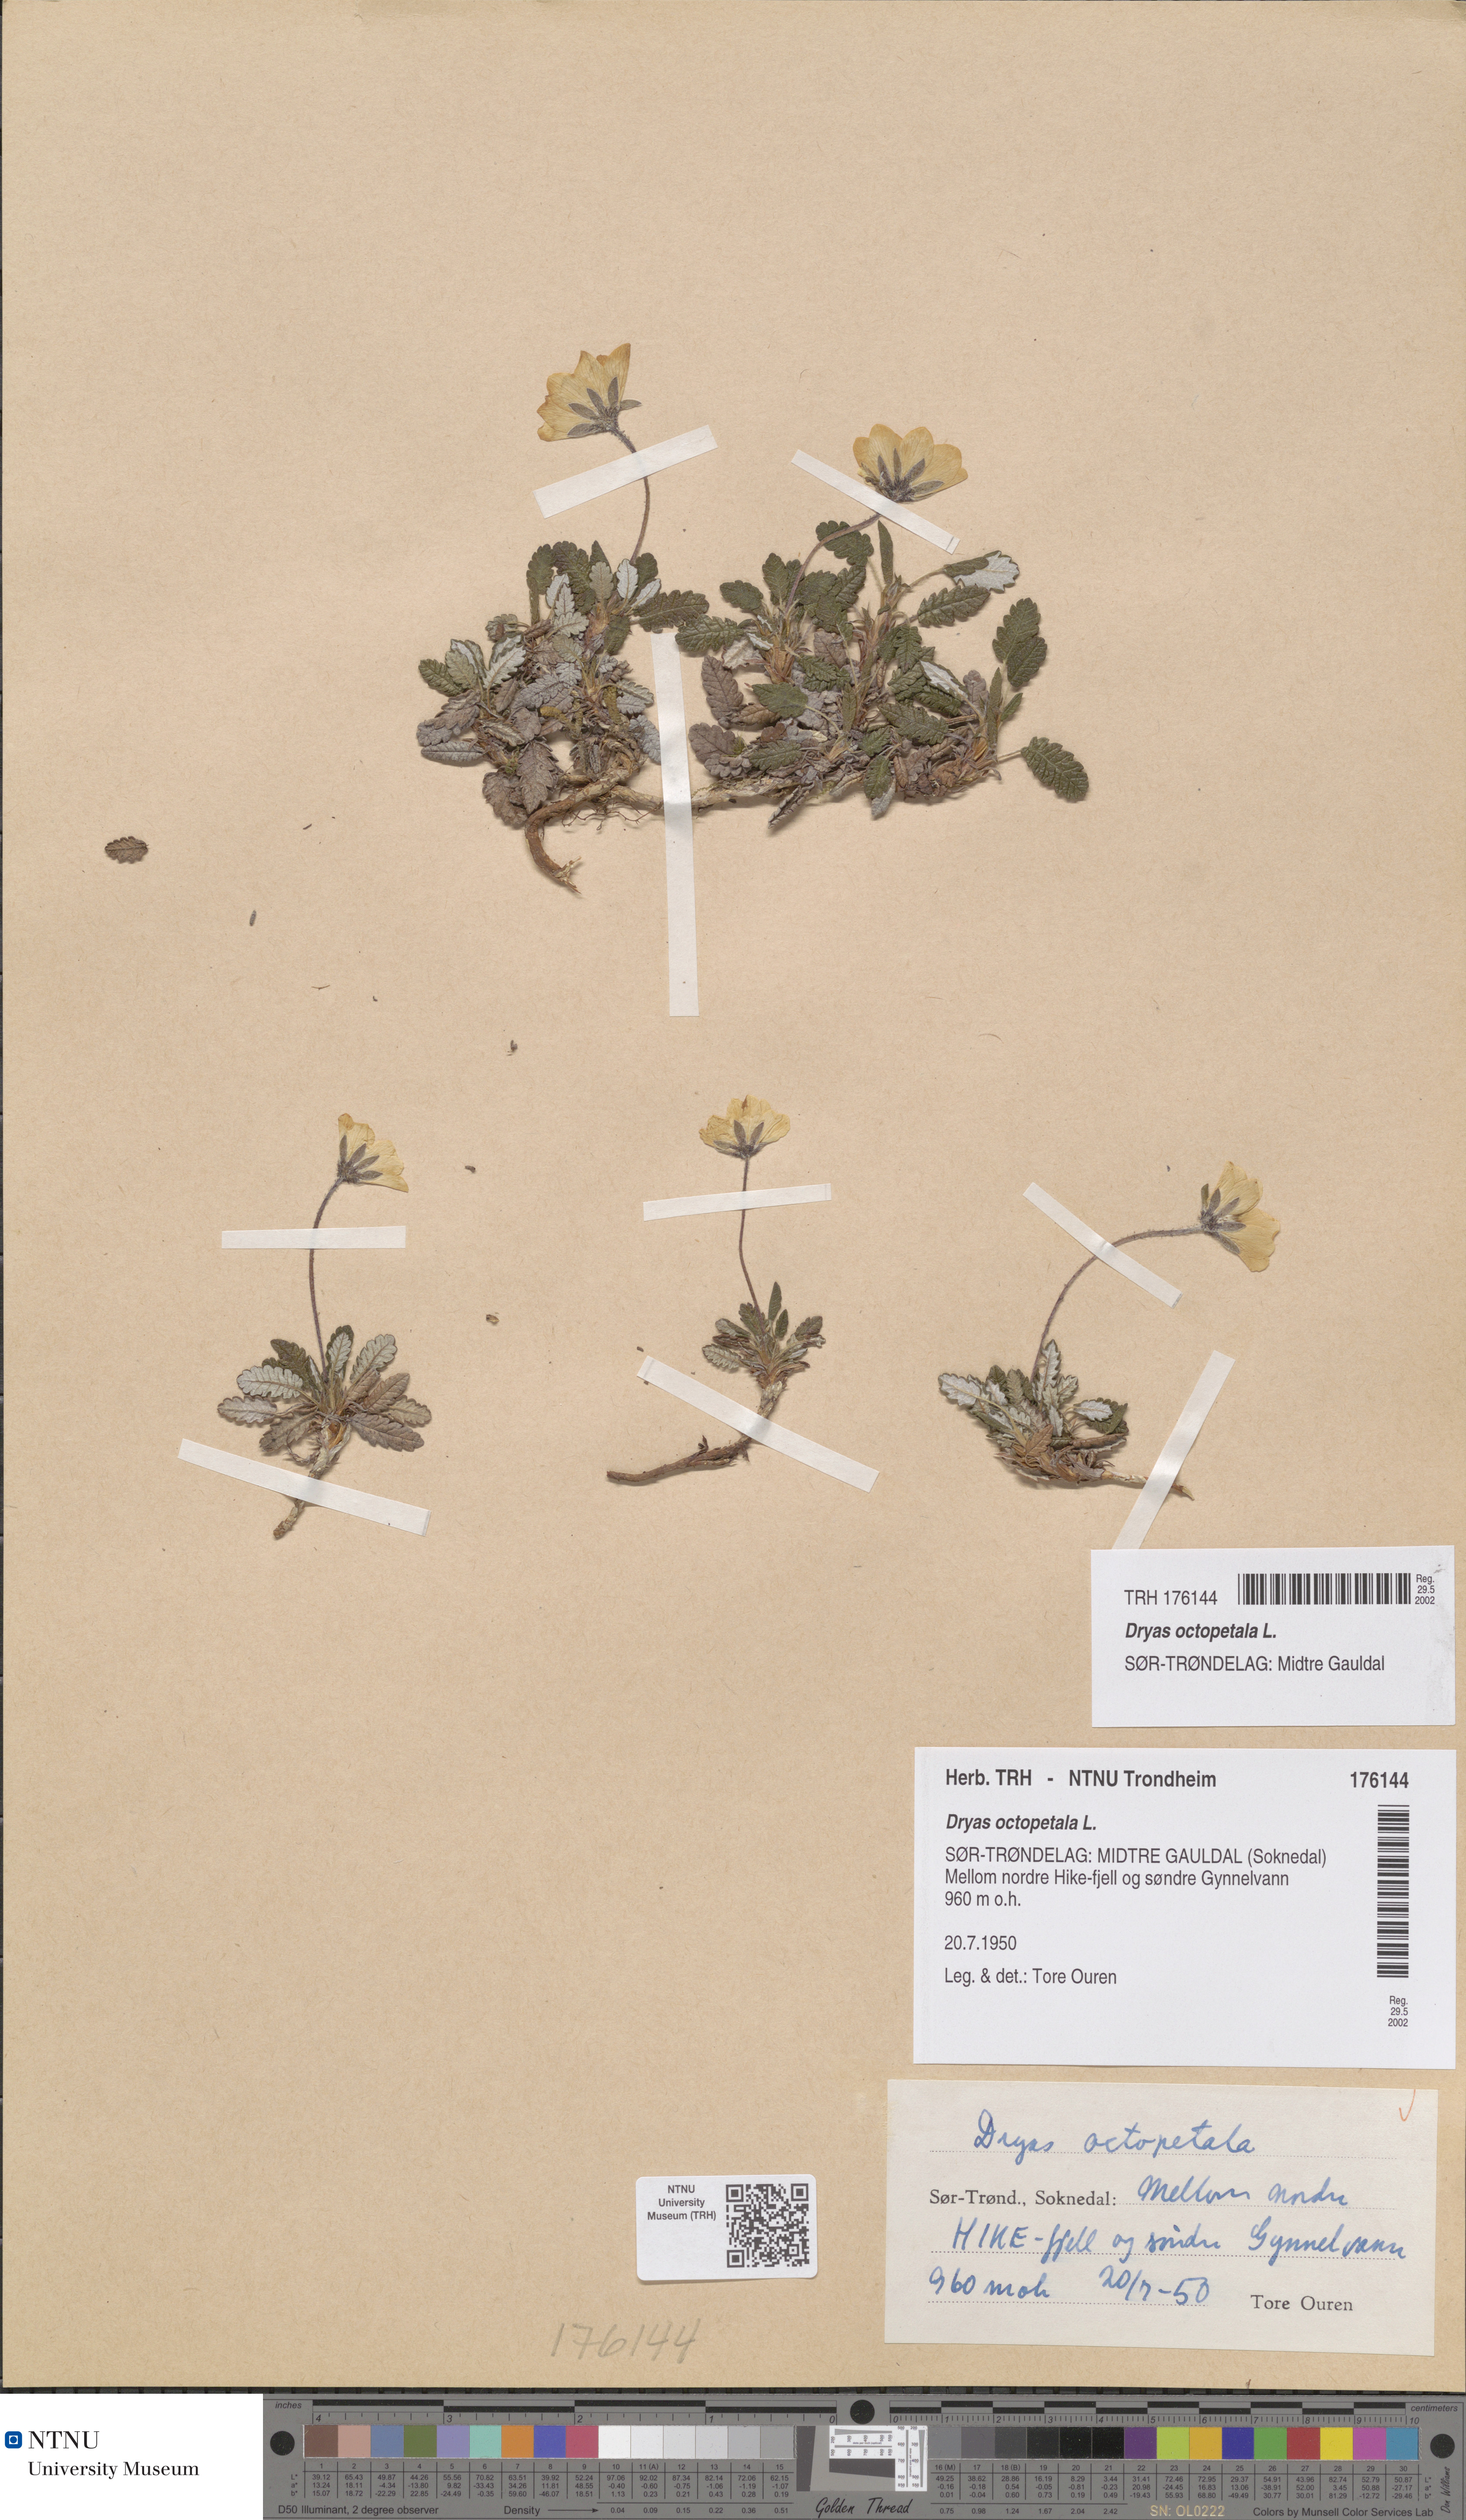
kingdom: Plantae
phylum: Tracheophyta
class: Magnoliopsida
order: Rosales
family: Rosaceae
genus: Dryas
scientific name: Dryas octopetala
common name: Eight-petal mountain-avens
